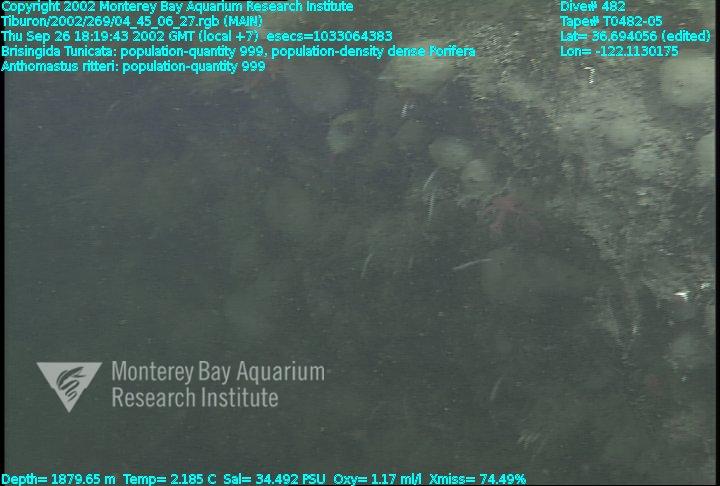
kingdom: Animalia
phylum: Porifera
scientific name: Porifera
